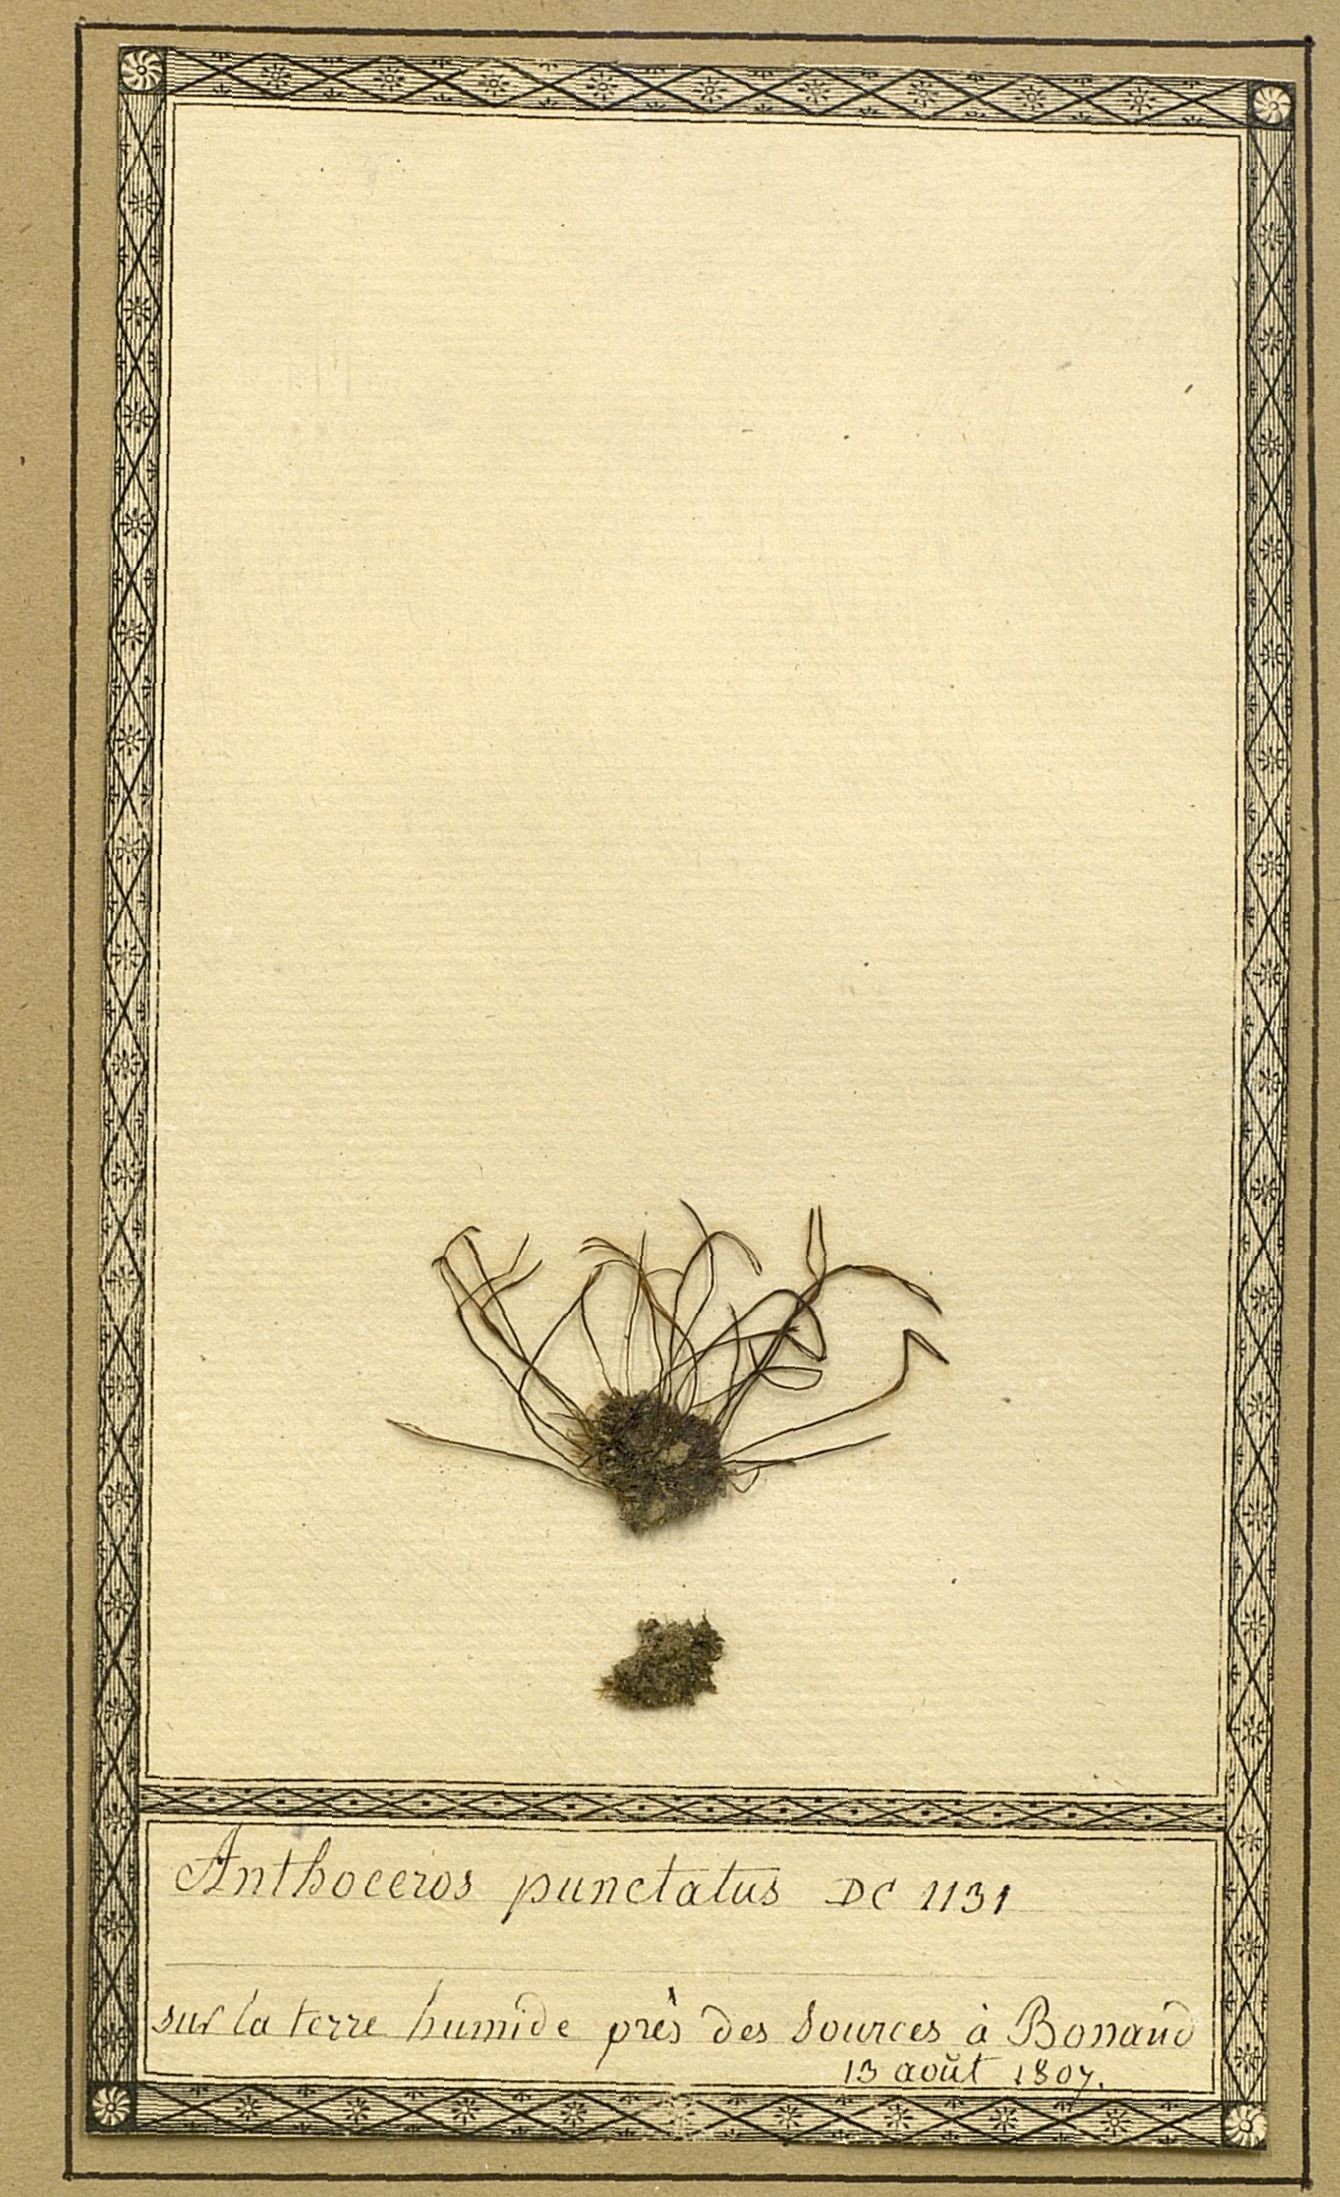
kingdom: Plantae
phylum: Anthocerotophyta
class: Anthocerotopsida
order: Anthocerotales
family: Anthocerotaceae
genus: Anthoceros
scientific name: Anthoceros punctatus
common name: Dotted hornwort
